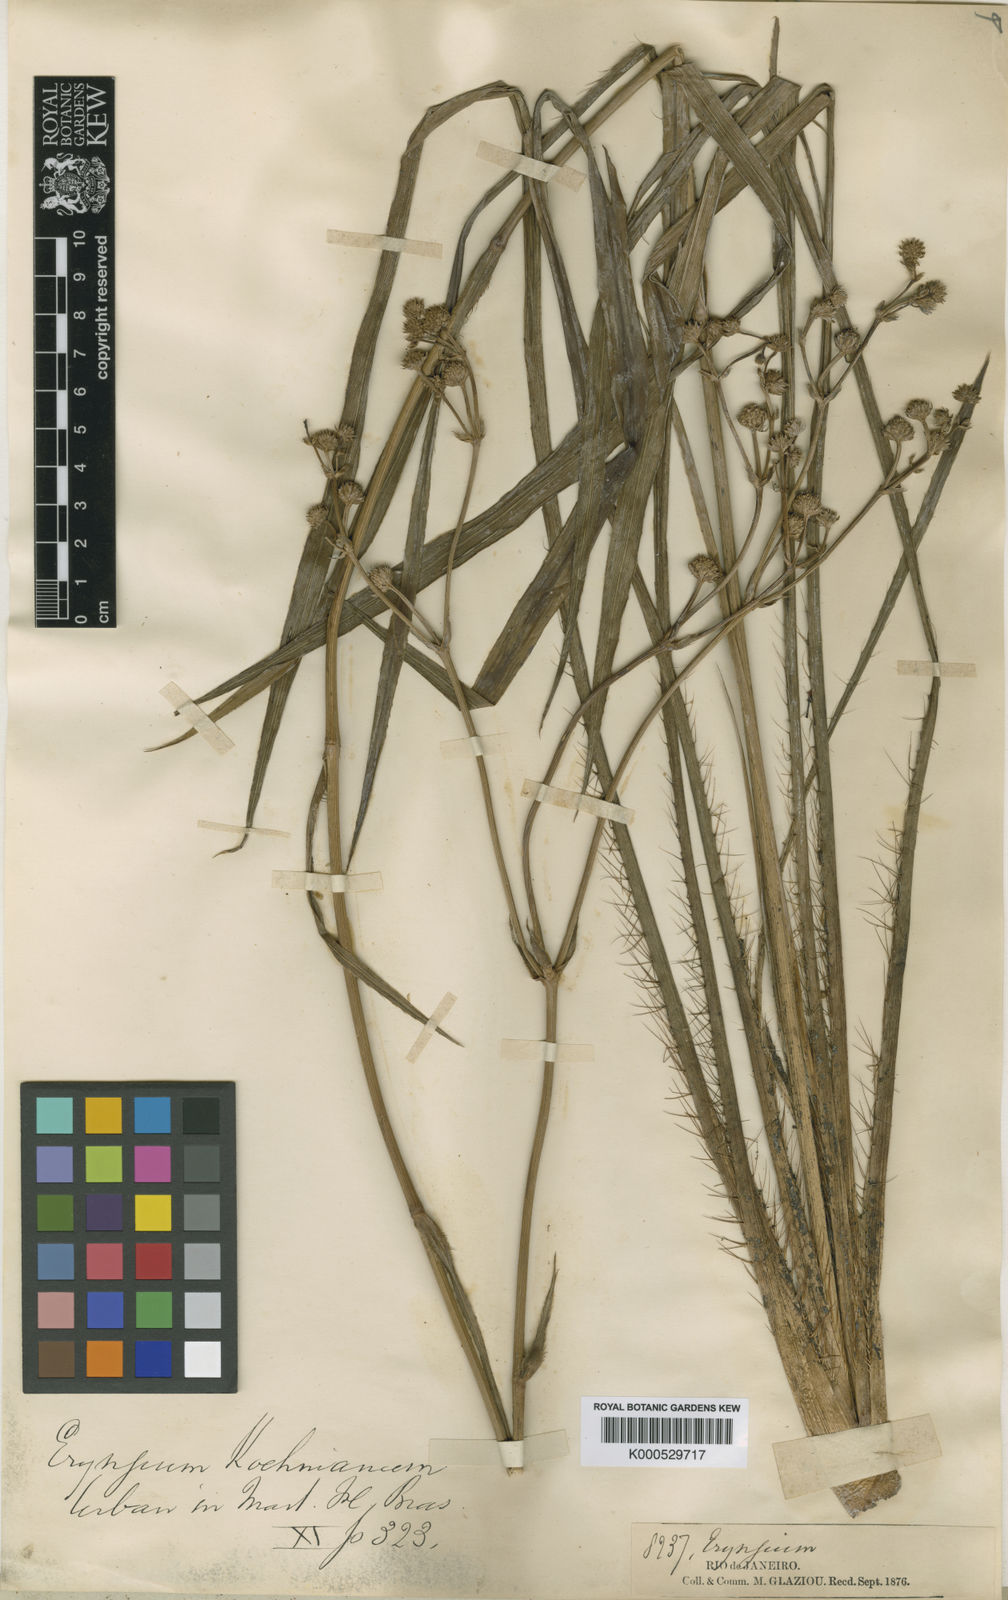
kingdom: Plantae
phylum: Tracheophyta
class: Magnoliopsida
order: Apiales
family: Apiaceae
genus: Eryngium
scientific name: Eryngium koehneanum
